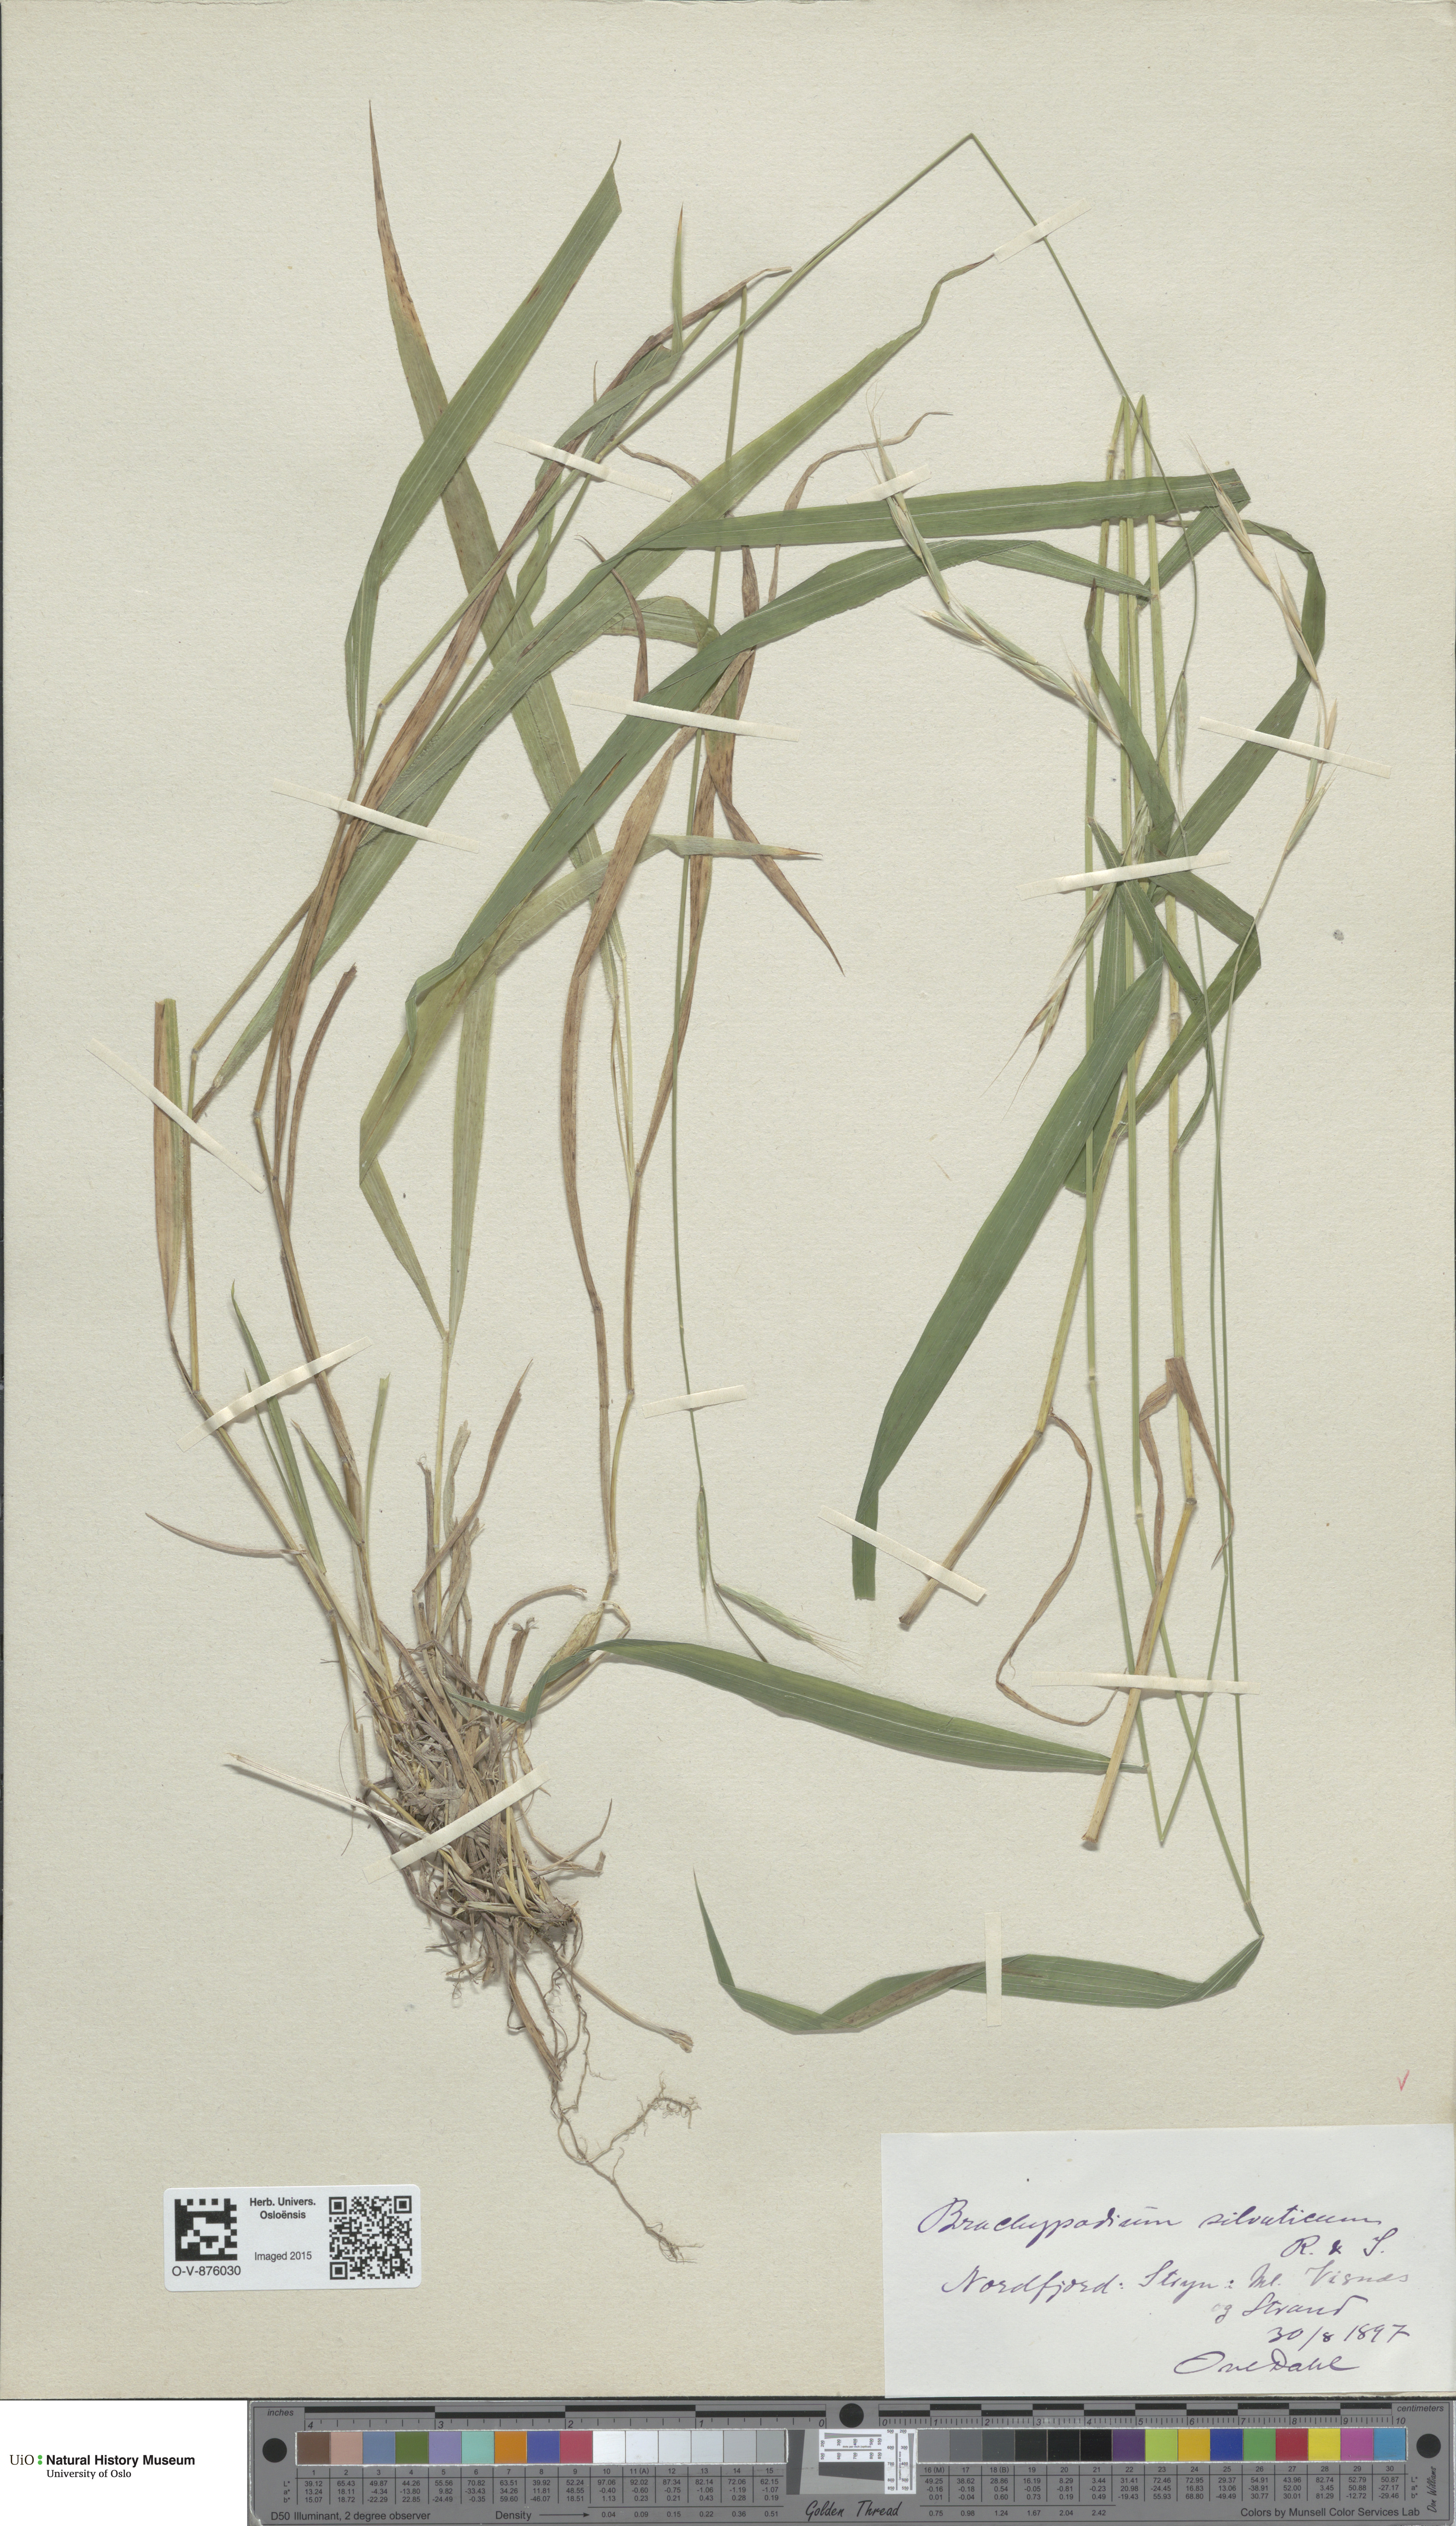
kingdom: Plantae
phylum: Tracheophyta
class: Liliopsida
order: Poales
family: Poaceae
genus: Brachypodium
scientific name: Brachypodium sylvaticum
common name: False-brome
